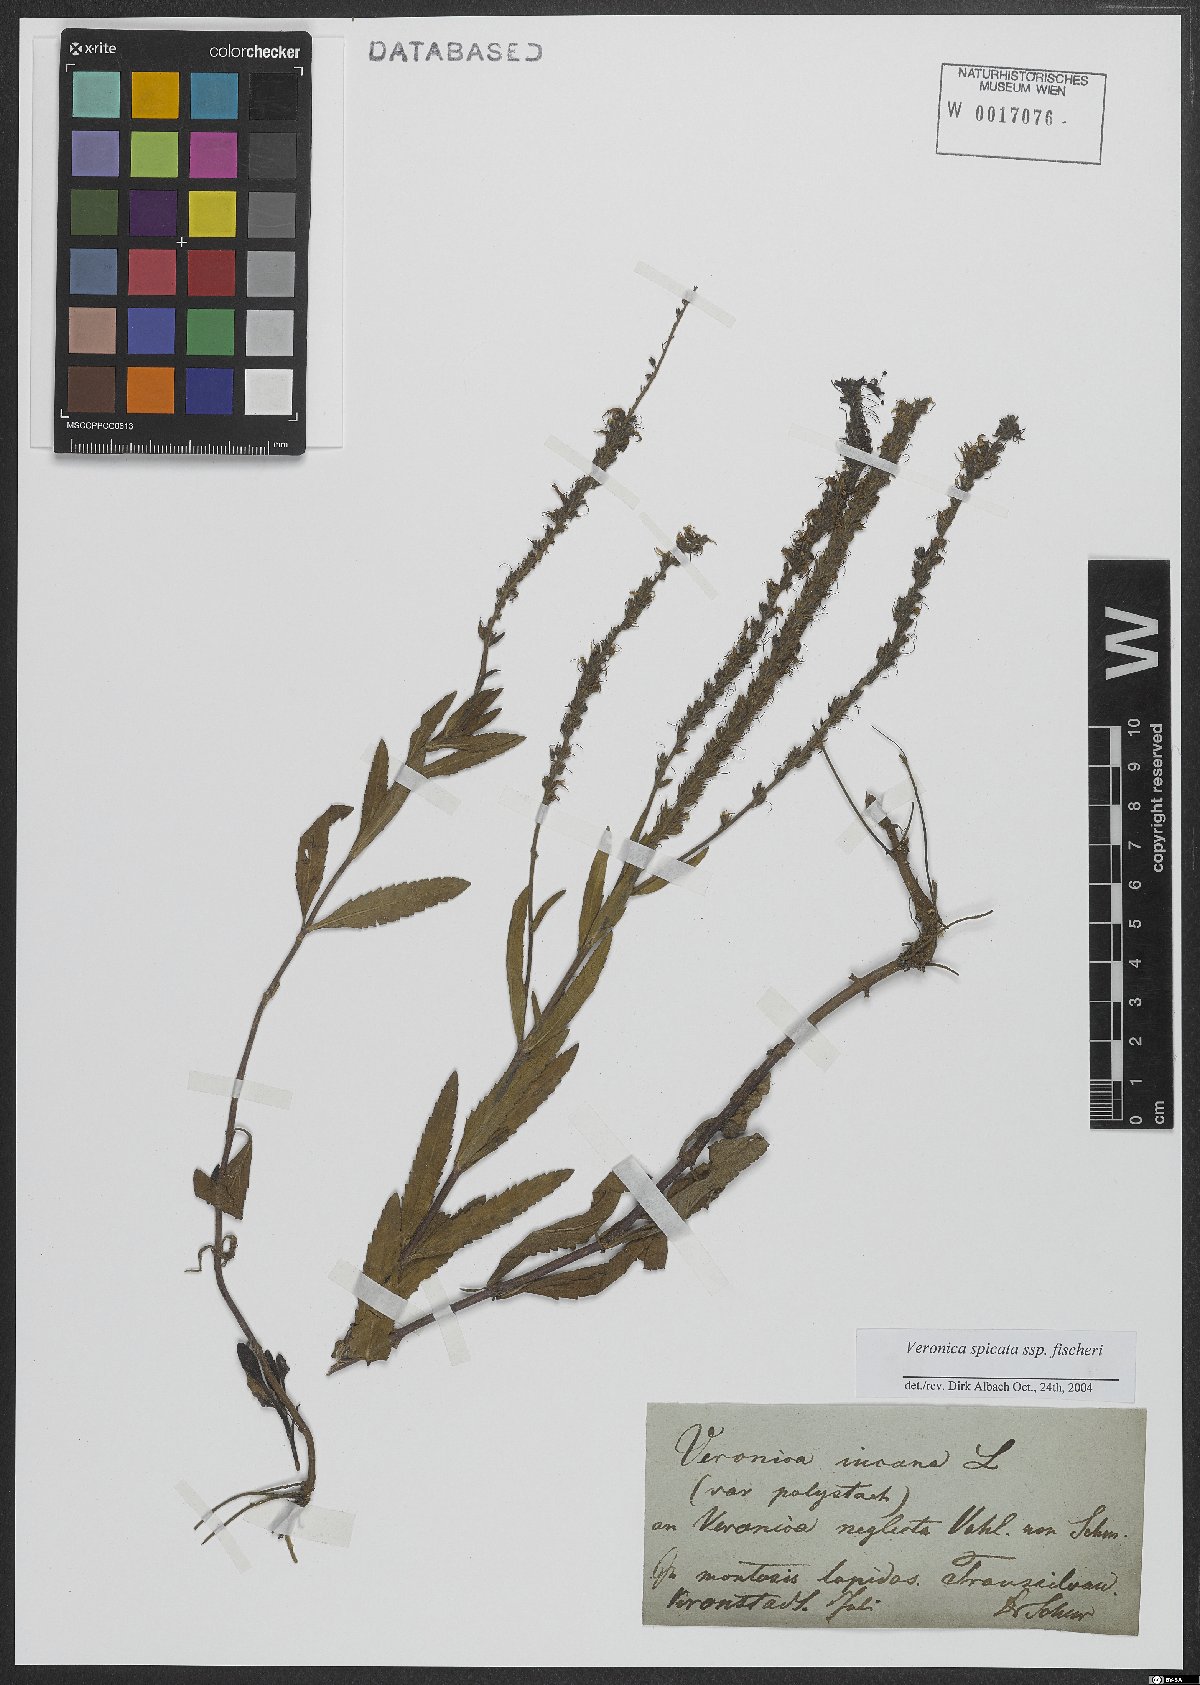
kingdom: Plantae
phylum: Tracheophyta
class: Magnoliopsida
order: Lamiales
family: Plantaginaceae
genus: Veronica
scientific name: Veronica spicata
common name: Spiked speedwell
